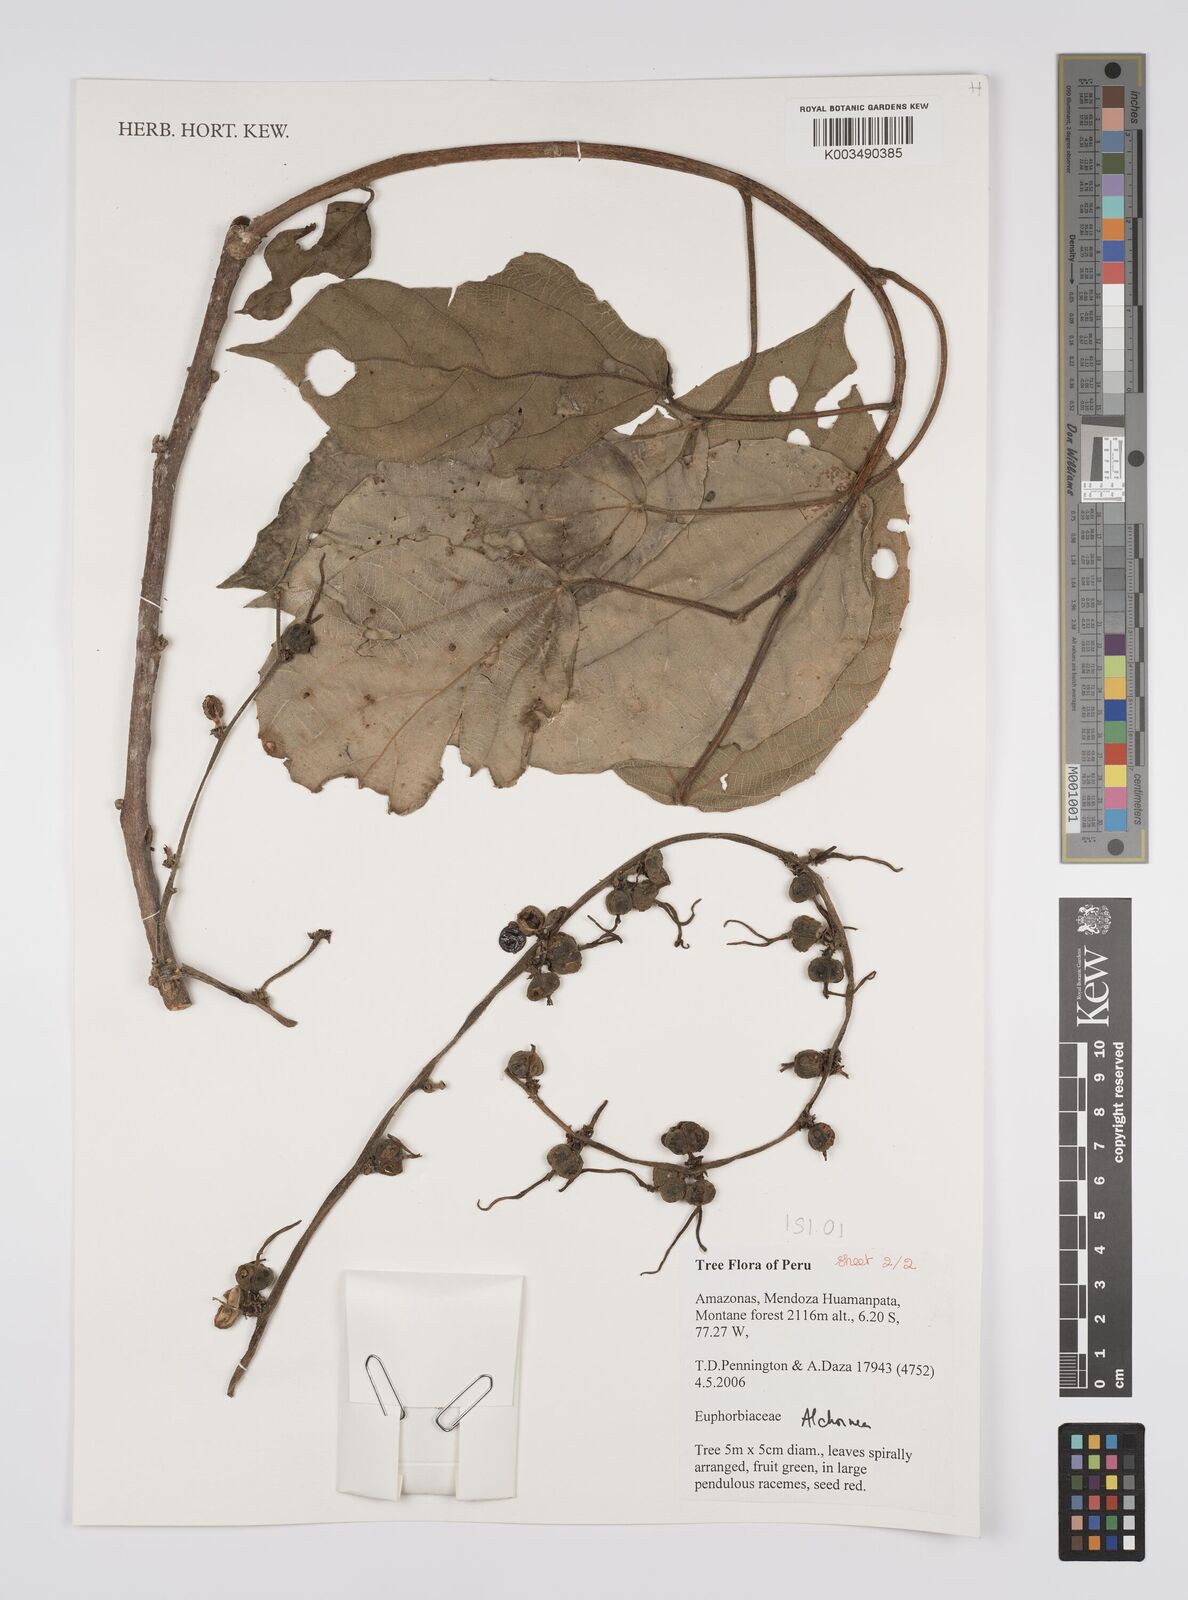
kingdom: Plantae
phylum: Tracheophyta
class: Magnoliopsida
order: Malpighiales
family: Euphorbiaceae
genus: Alchornea
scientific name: Alchornea
